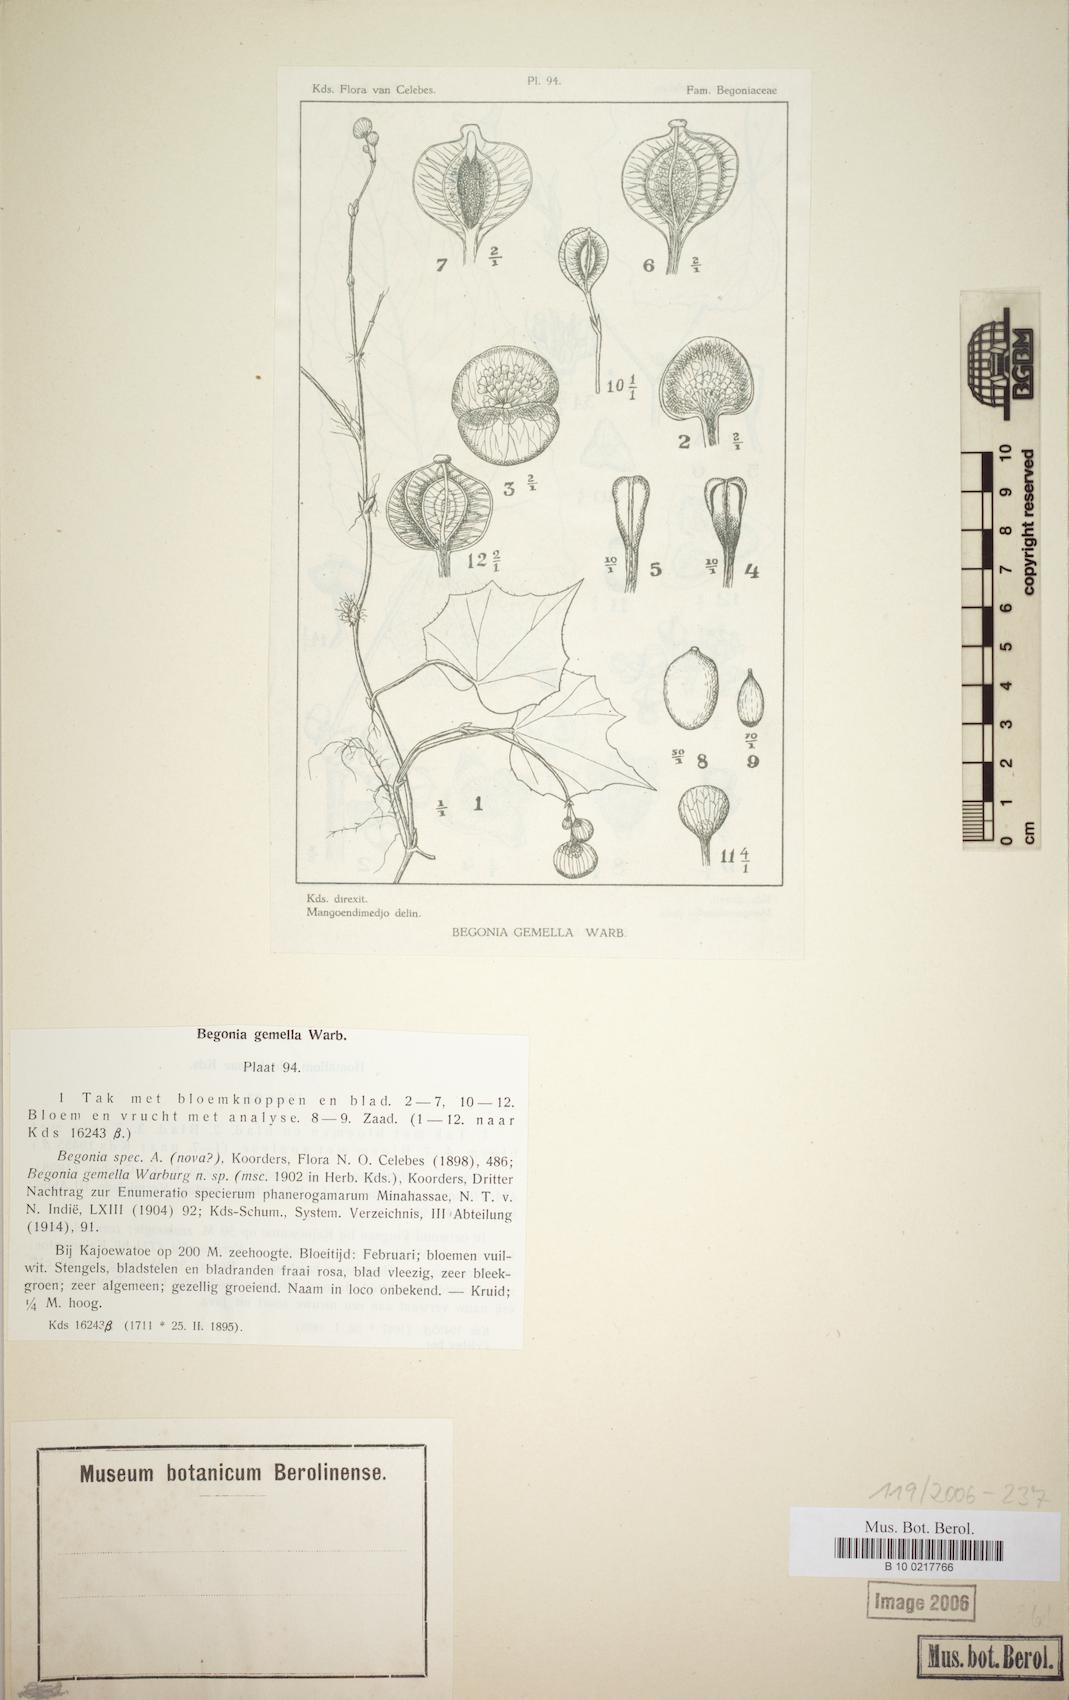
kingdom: Plantae
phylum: Tracheophyta
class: Magnoliopsida
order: Cucurbitales
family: Begoniaceae
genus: Begonia
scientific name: Begonia gemella
